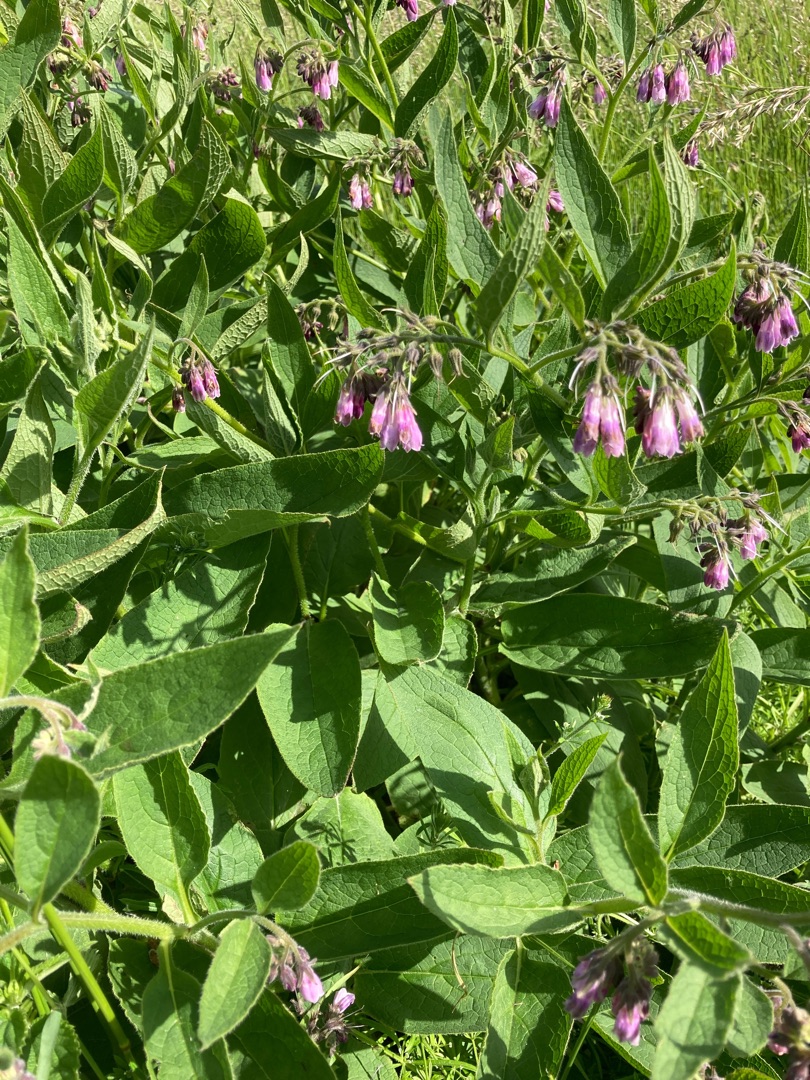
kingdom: Plantae
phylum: Tracheophyta
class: Magnoliopsida
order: Boraginales
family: Boraginaceae
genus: Symphytum
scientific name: Symphytum uplandicum
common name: Foder-kulsukker
